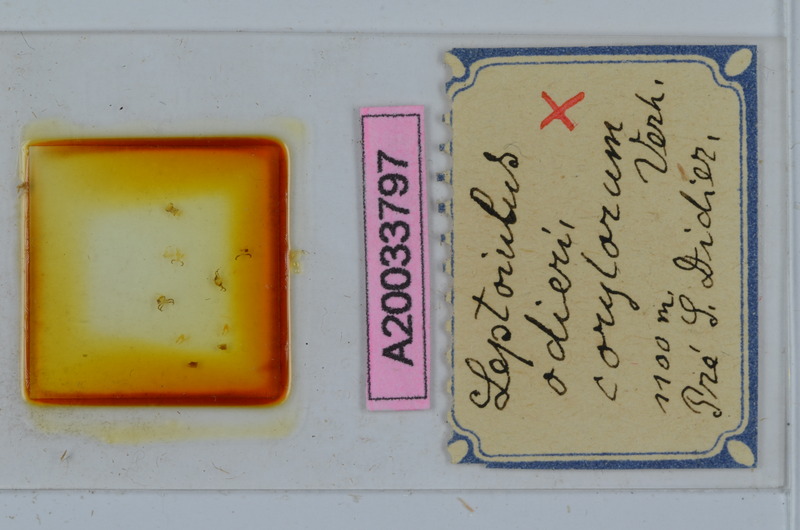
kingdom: Animalia
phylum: Arthropoda
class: Diplopoda
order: Julida
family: Julidae
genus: Leptoiulus
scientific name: Leptoiulus odieri
